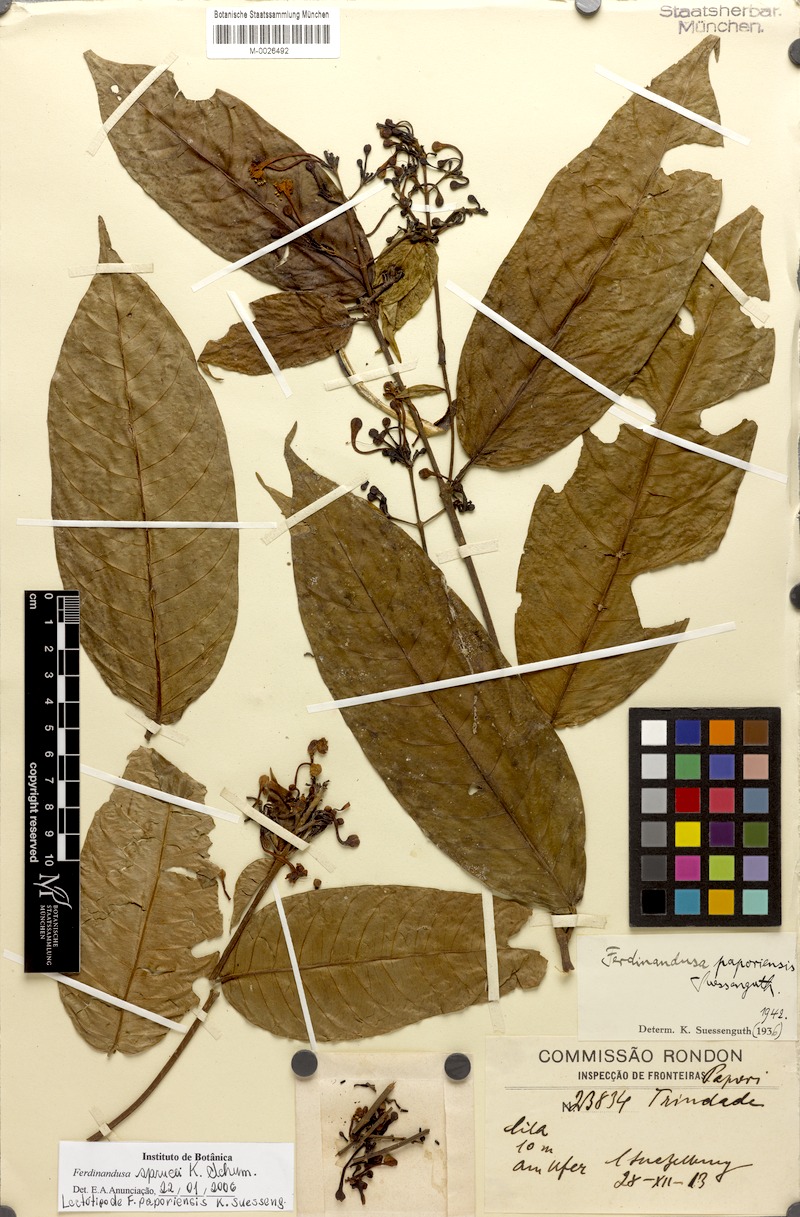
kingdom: Plantae
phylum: Tracheophyta
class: Magnoliopsida
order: Gentianales
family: Rubiaceae
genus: Ferdinandusa
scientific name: Ferdinandusa sprucei
